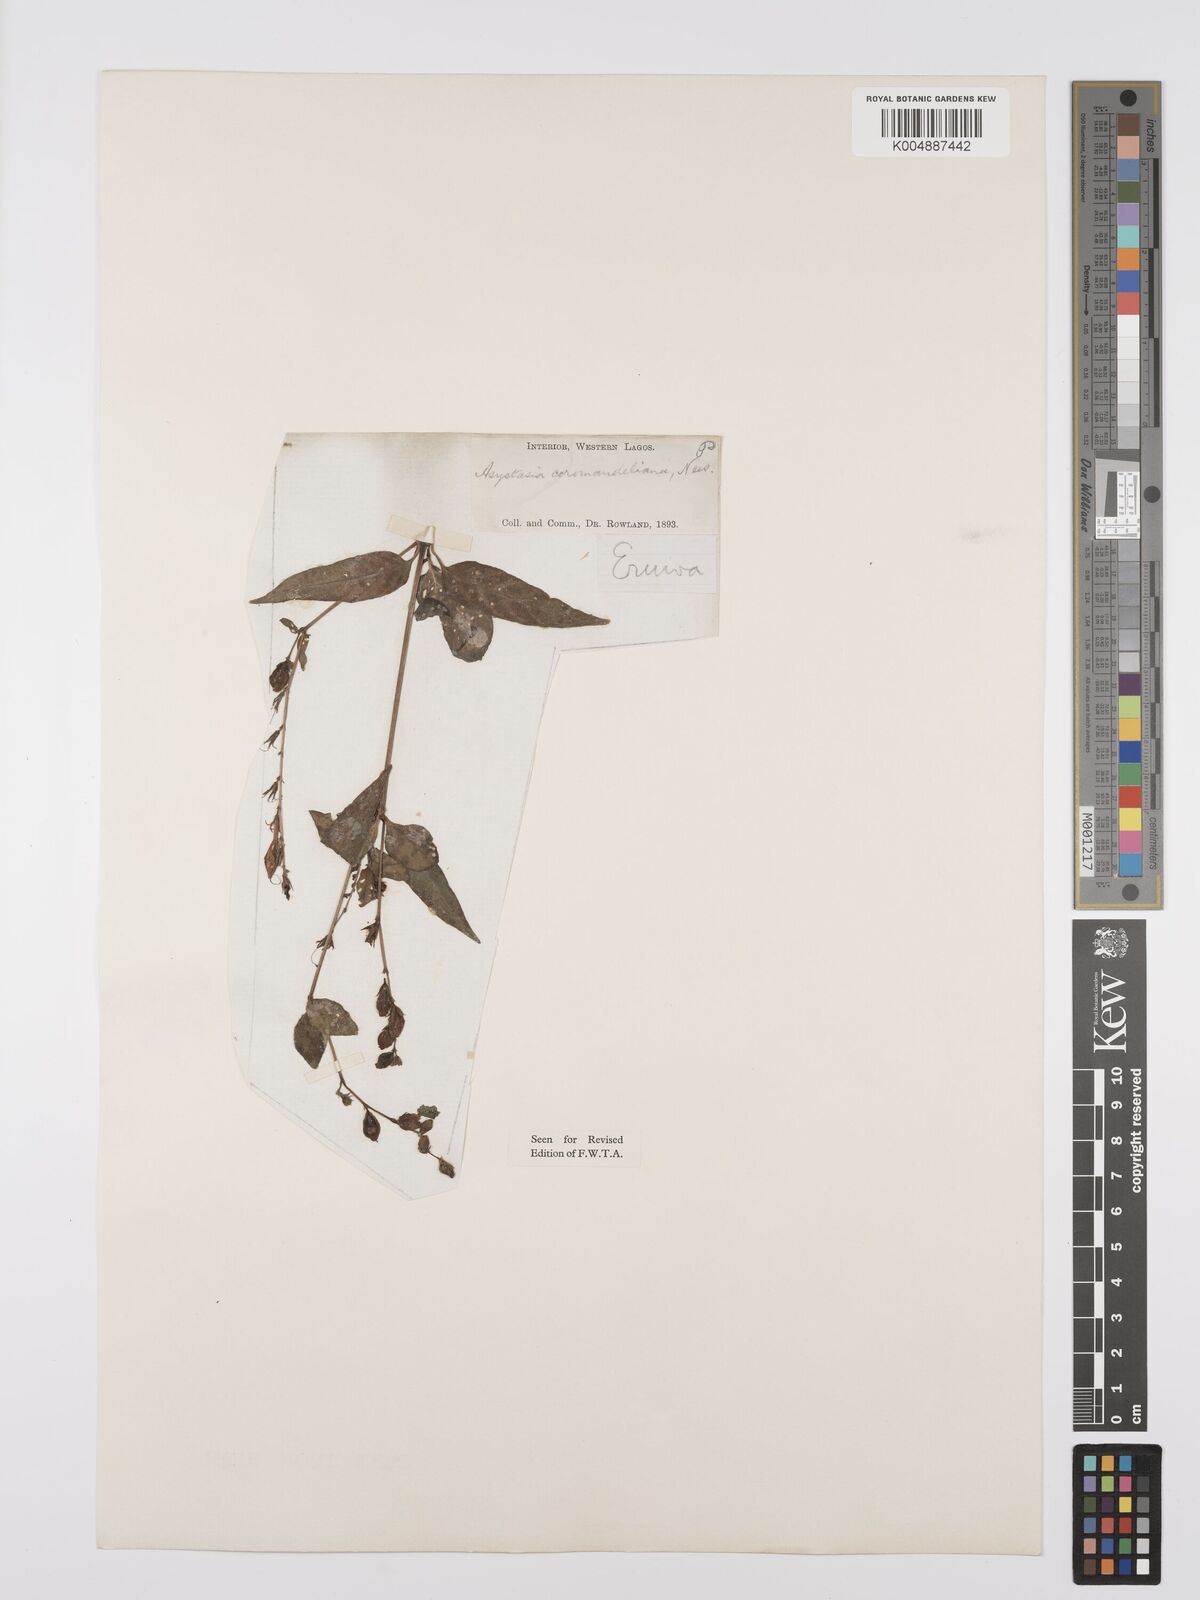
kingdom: Plantae
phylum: Tracheophyta
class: Magnoliopsida
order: Lamiales
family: Acanthaceae
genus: Asystasia
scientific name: Asystasia gangetica
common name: Chinese violet
